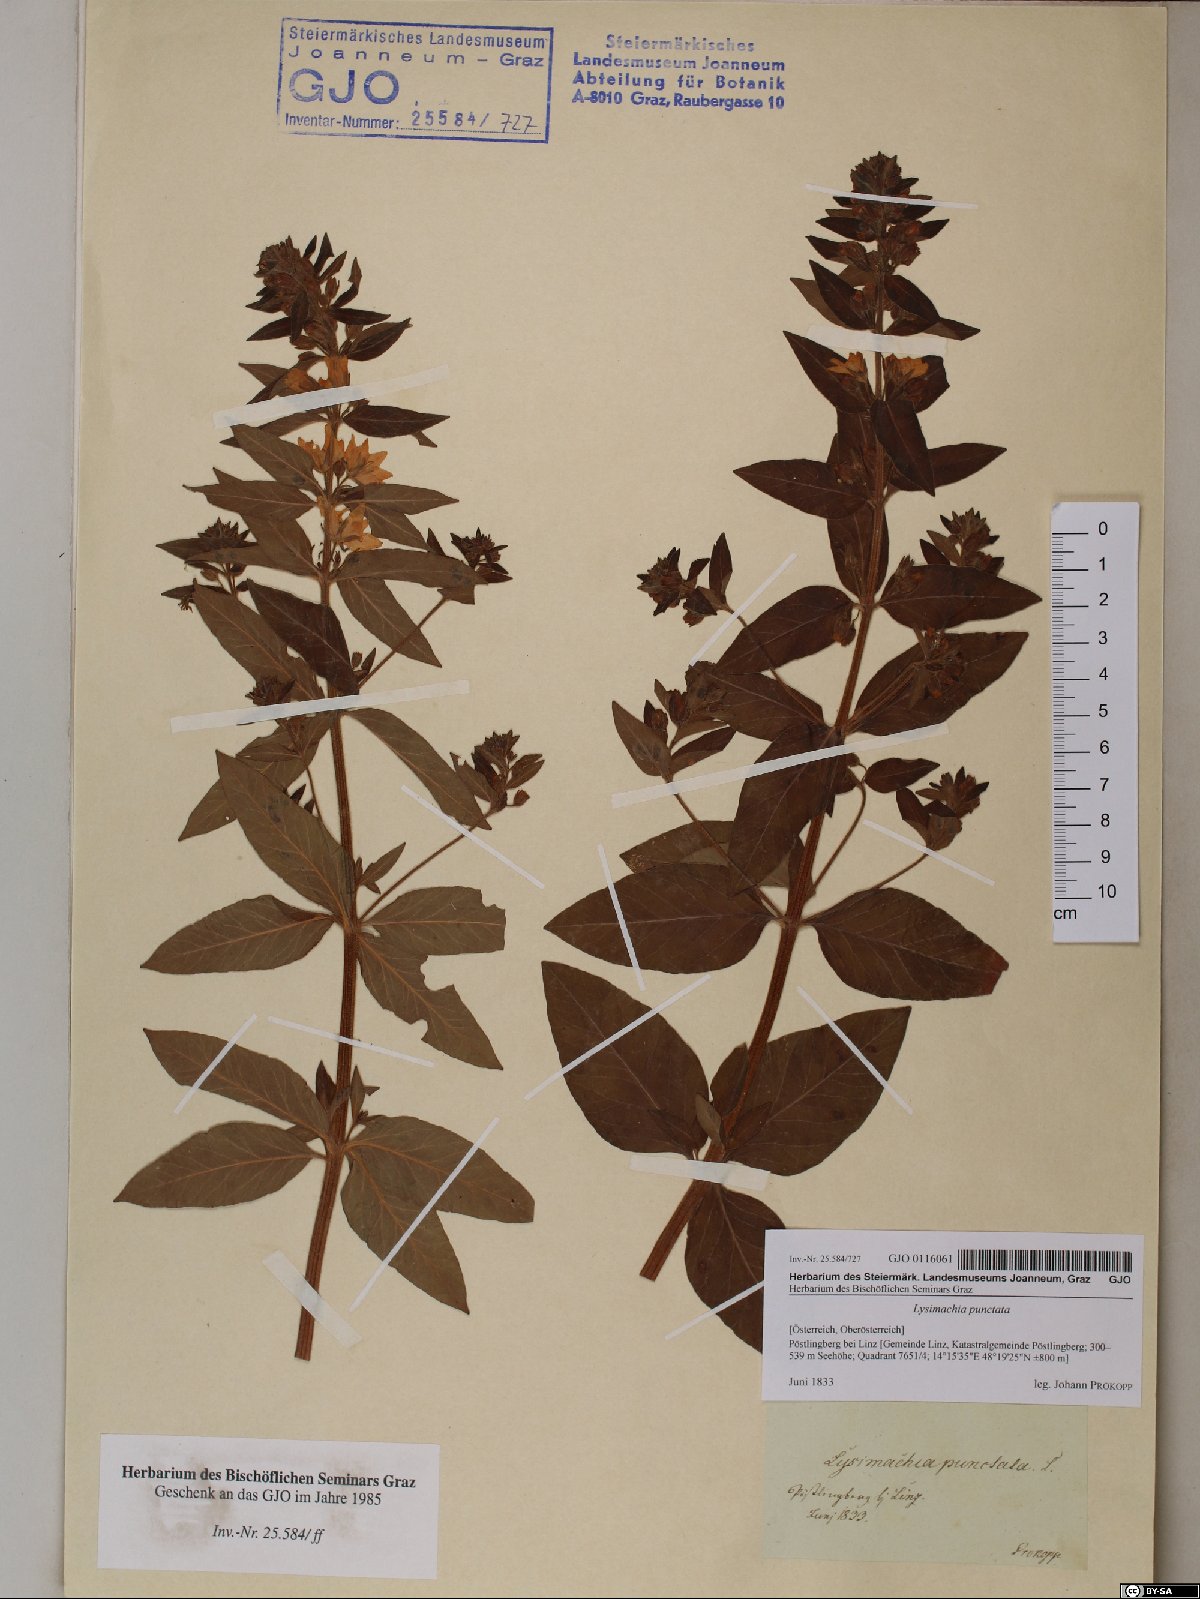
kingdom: Plantae
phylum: Tracheophyta
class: Magnoliopsida
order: Ericales
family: Primulaceae
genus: Lysimachia
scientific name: Lysimachia punctata
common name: Dotted loosestrife
